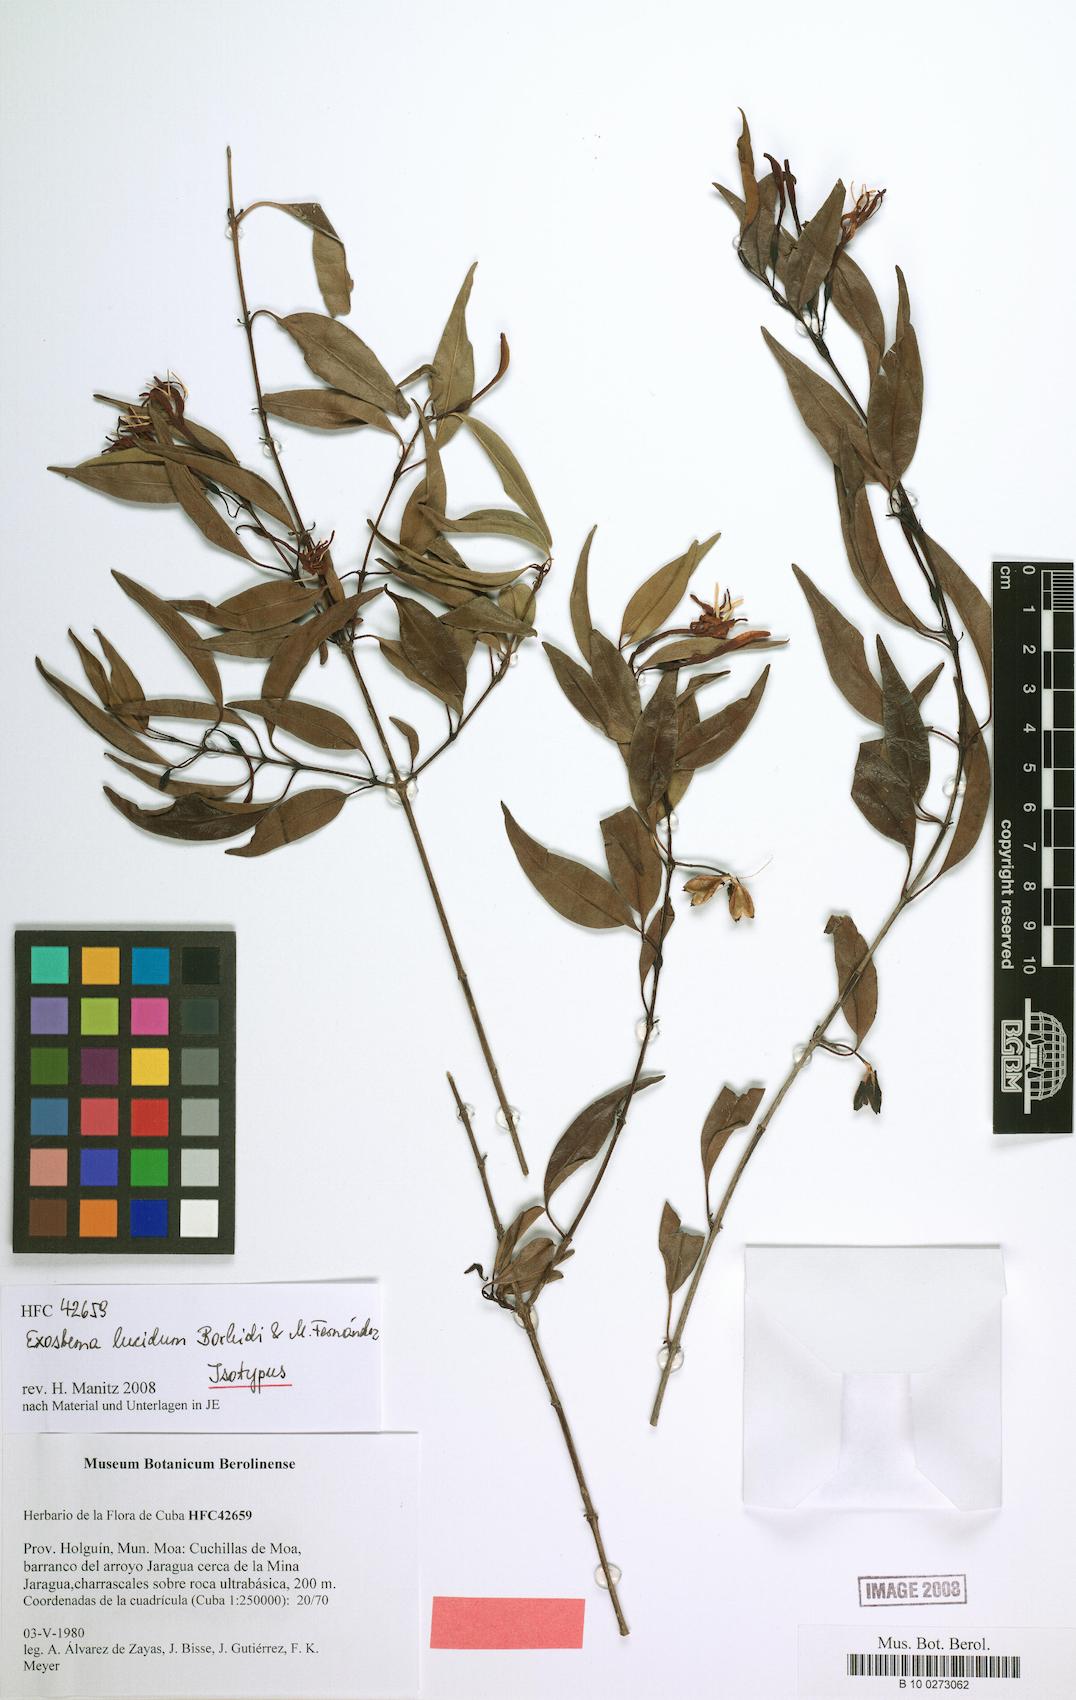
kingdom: Plantae
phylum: Tracheophyta
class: Magnoliopsida
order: Gentianales
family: Rubiaceae
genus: Exostema
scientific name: Exostema lancifolium
